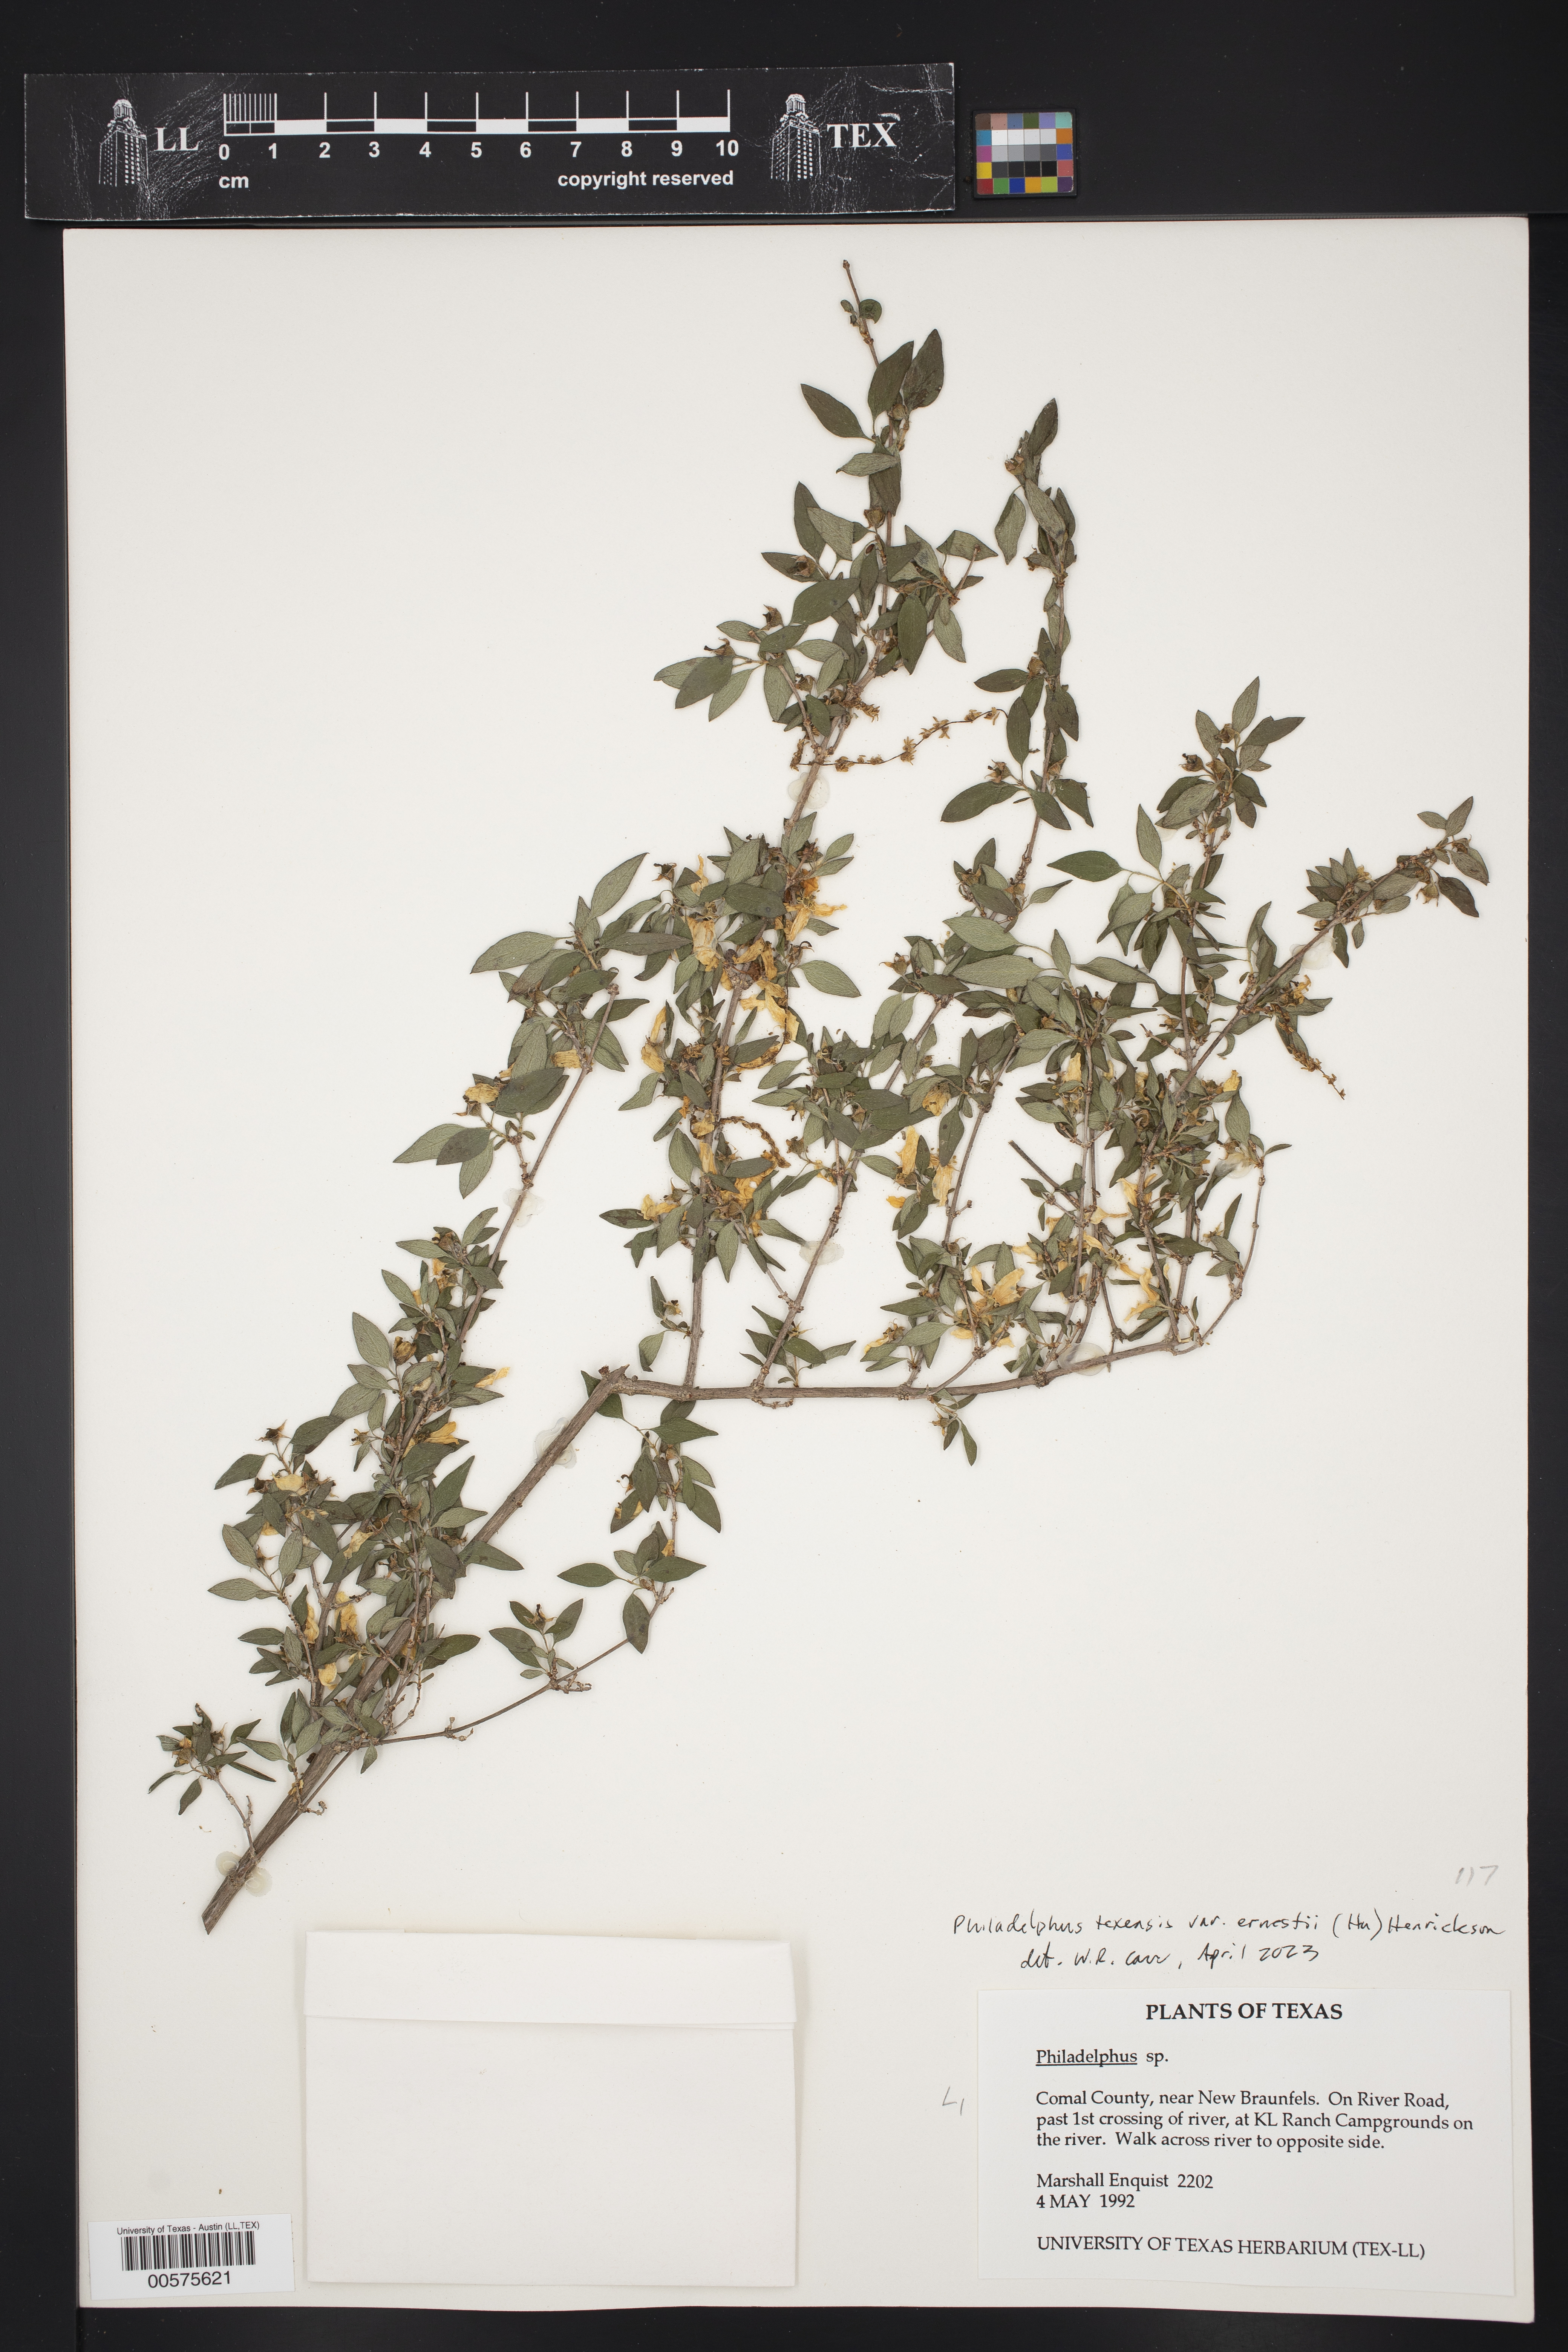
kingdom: Plantae
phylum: Tracheophyta
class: Magnoliopsida
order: Cornales
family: Hydrangeaceae
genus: Philadelphus
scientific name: Philadelphus texensis
